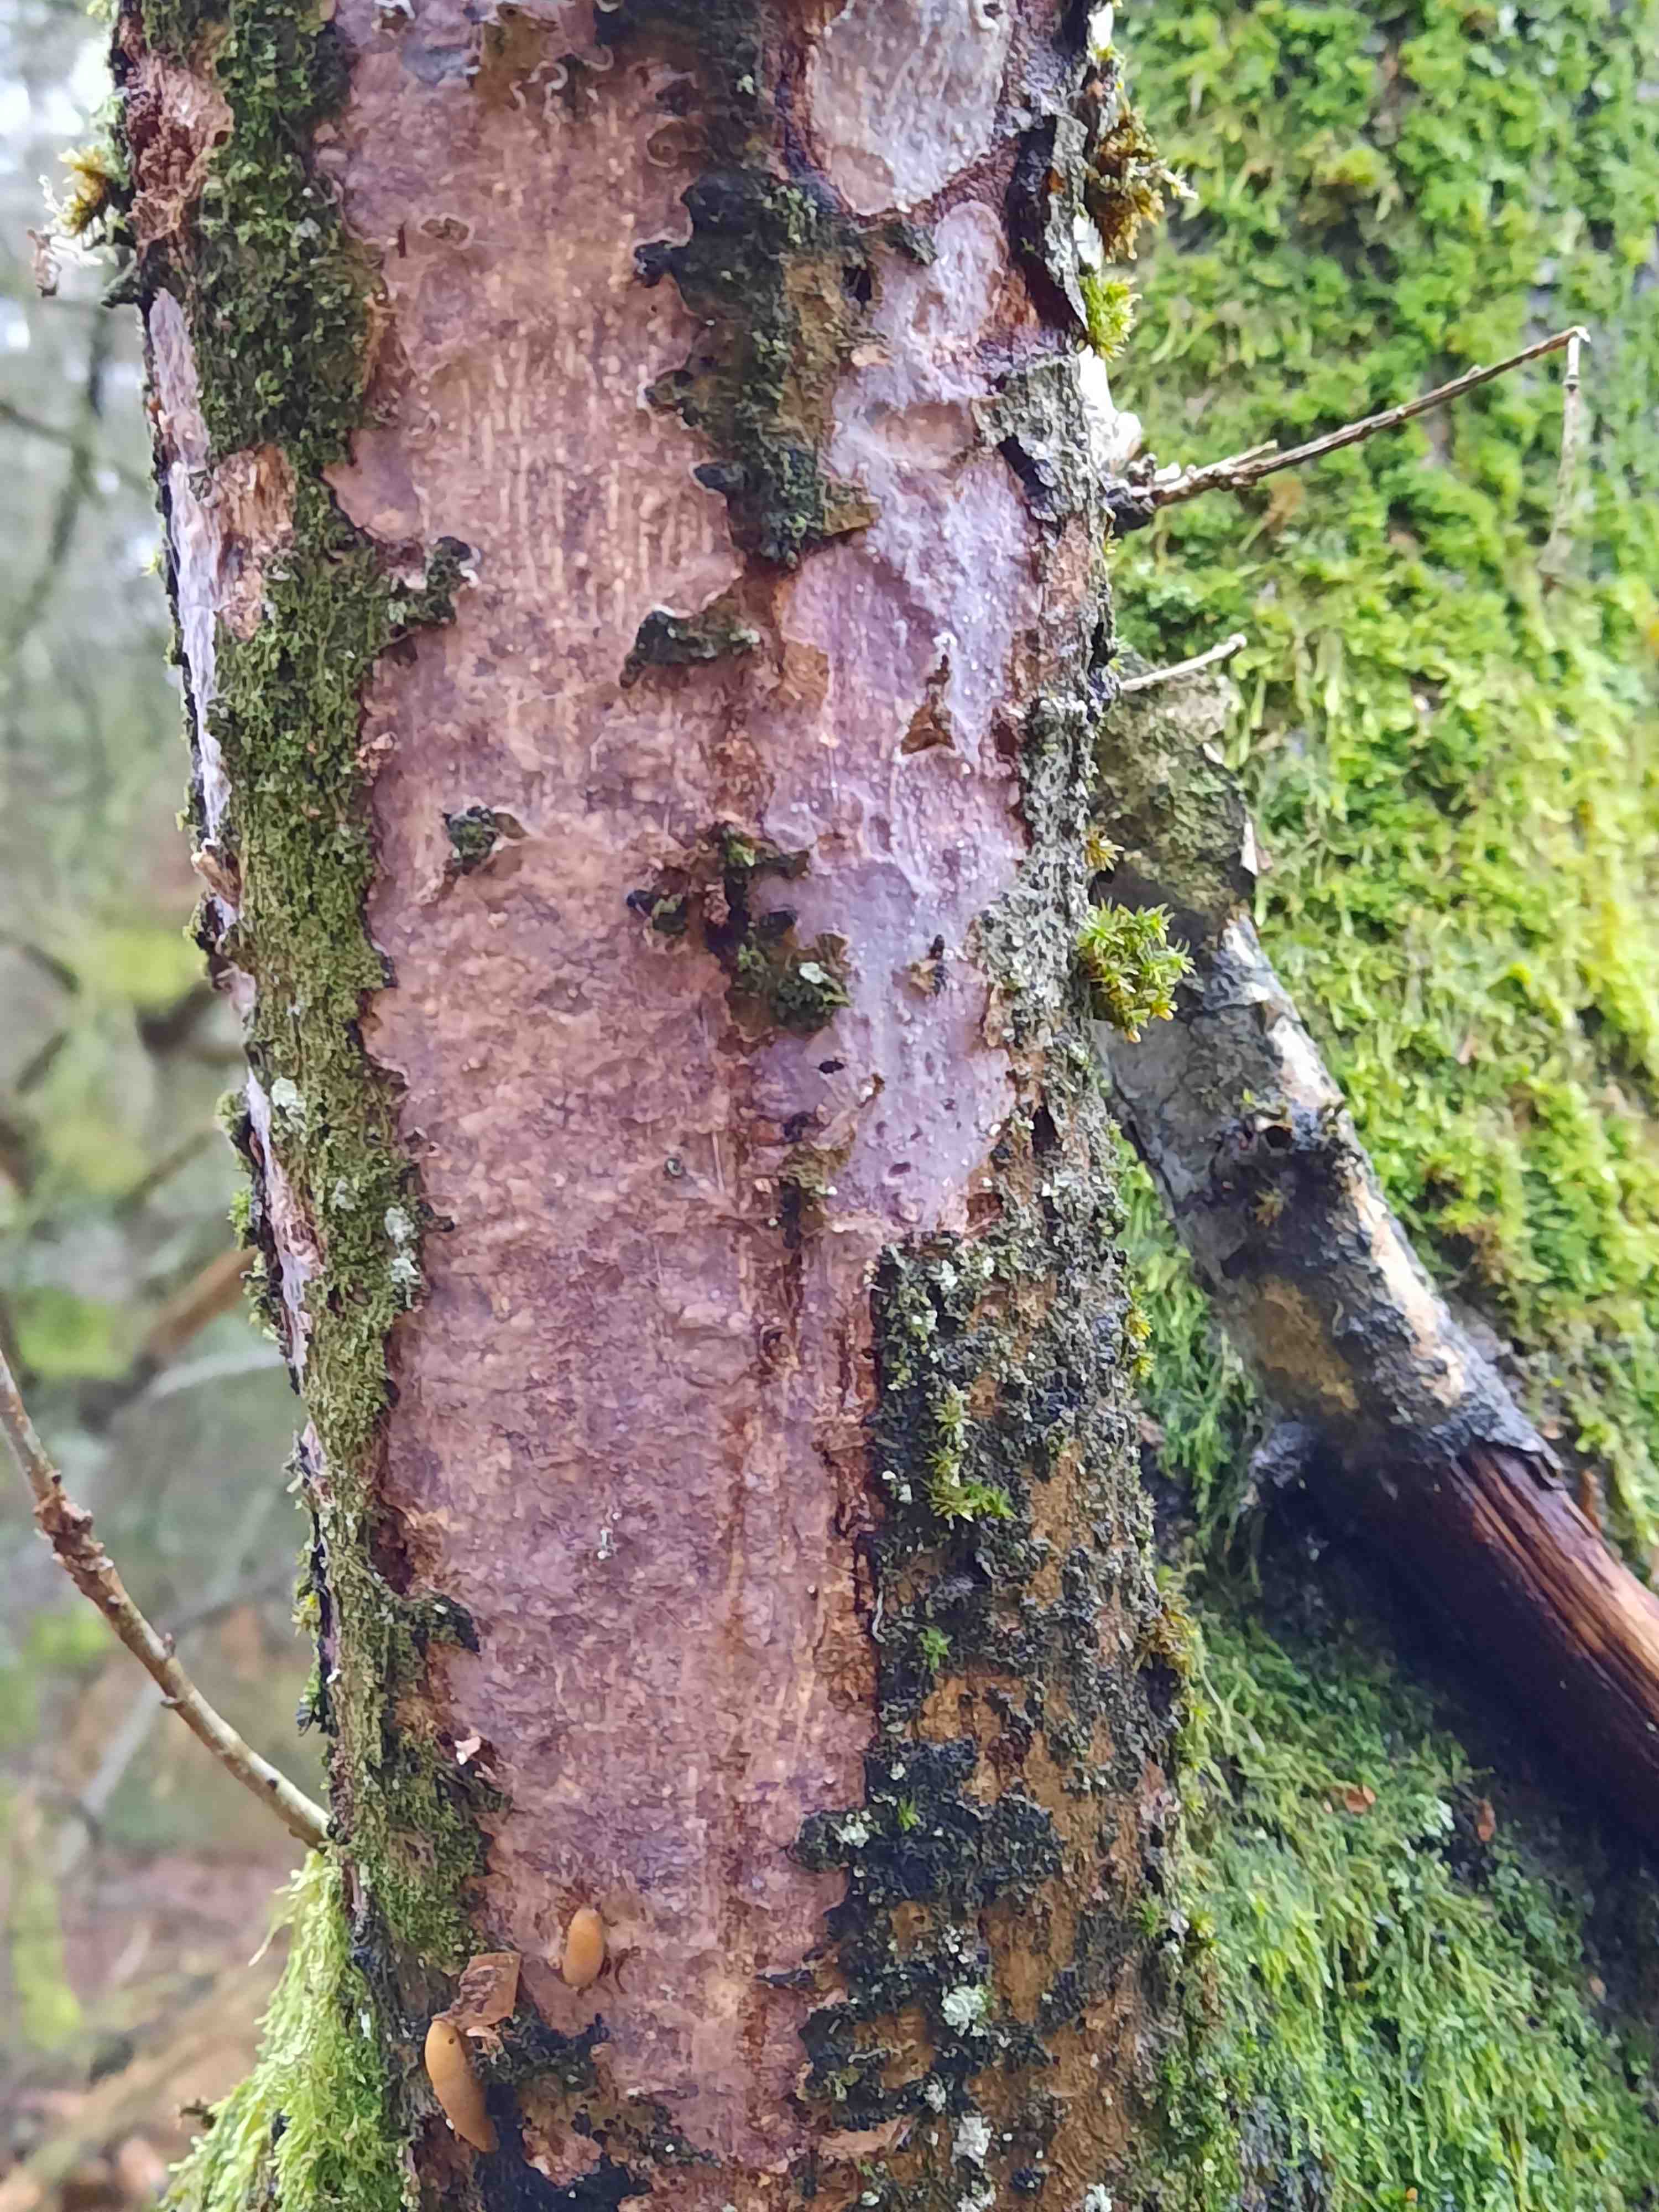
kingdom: Fungi
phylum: Basidiomycota
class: Agaricomycetes
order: Corticiales
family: Vuilleminiaceae
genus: Vuilleminia
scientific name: Vuilleminia comedens
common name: almindelig barksprænger
